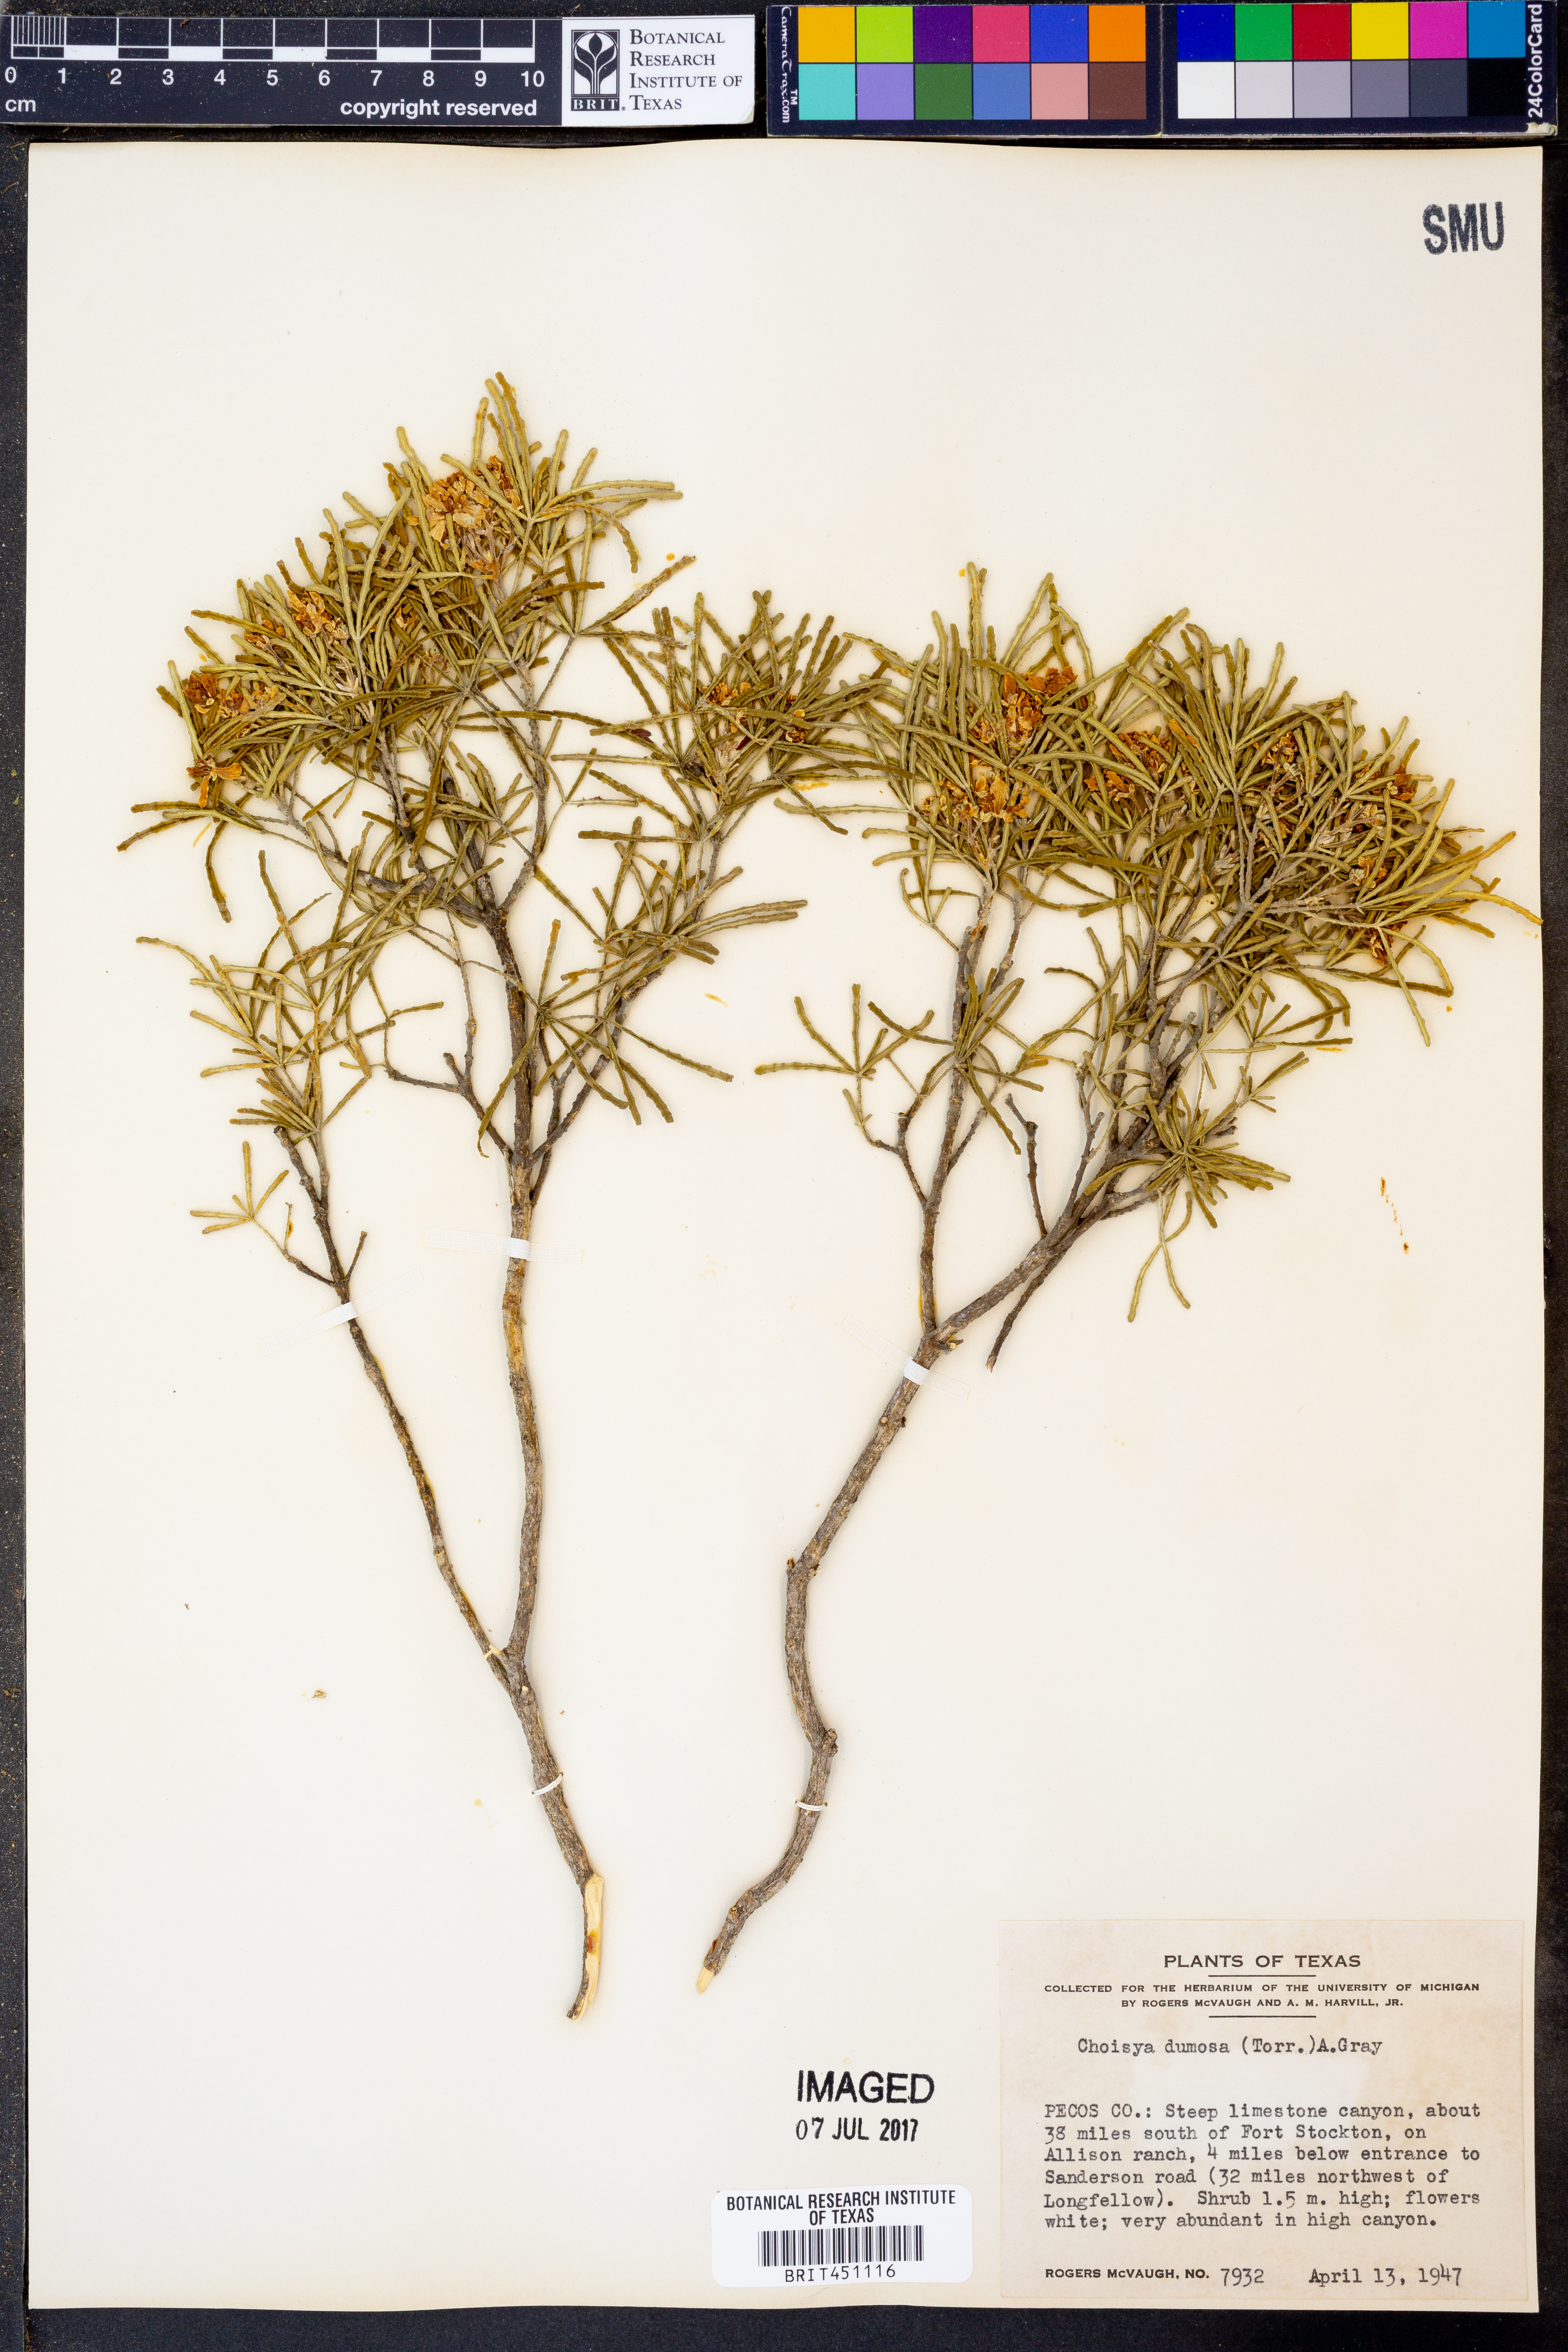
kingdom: Plantae
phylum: Tracheophyta
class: Magnoliopsida
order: Sapindales
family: Rutaceae
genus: Choisya
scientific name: Choisya dumosa
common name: Mexican-orange
